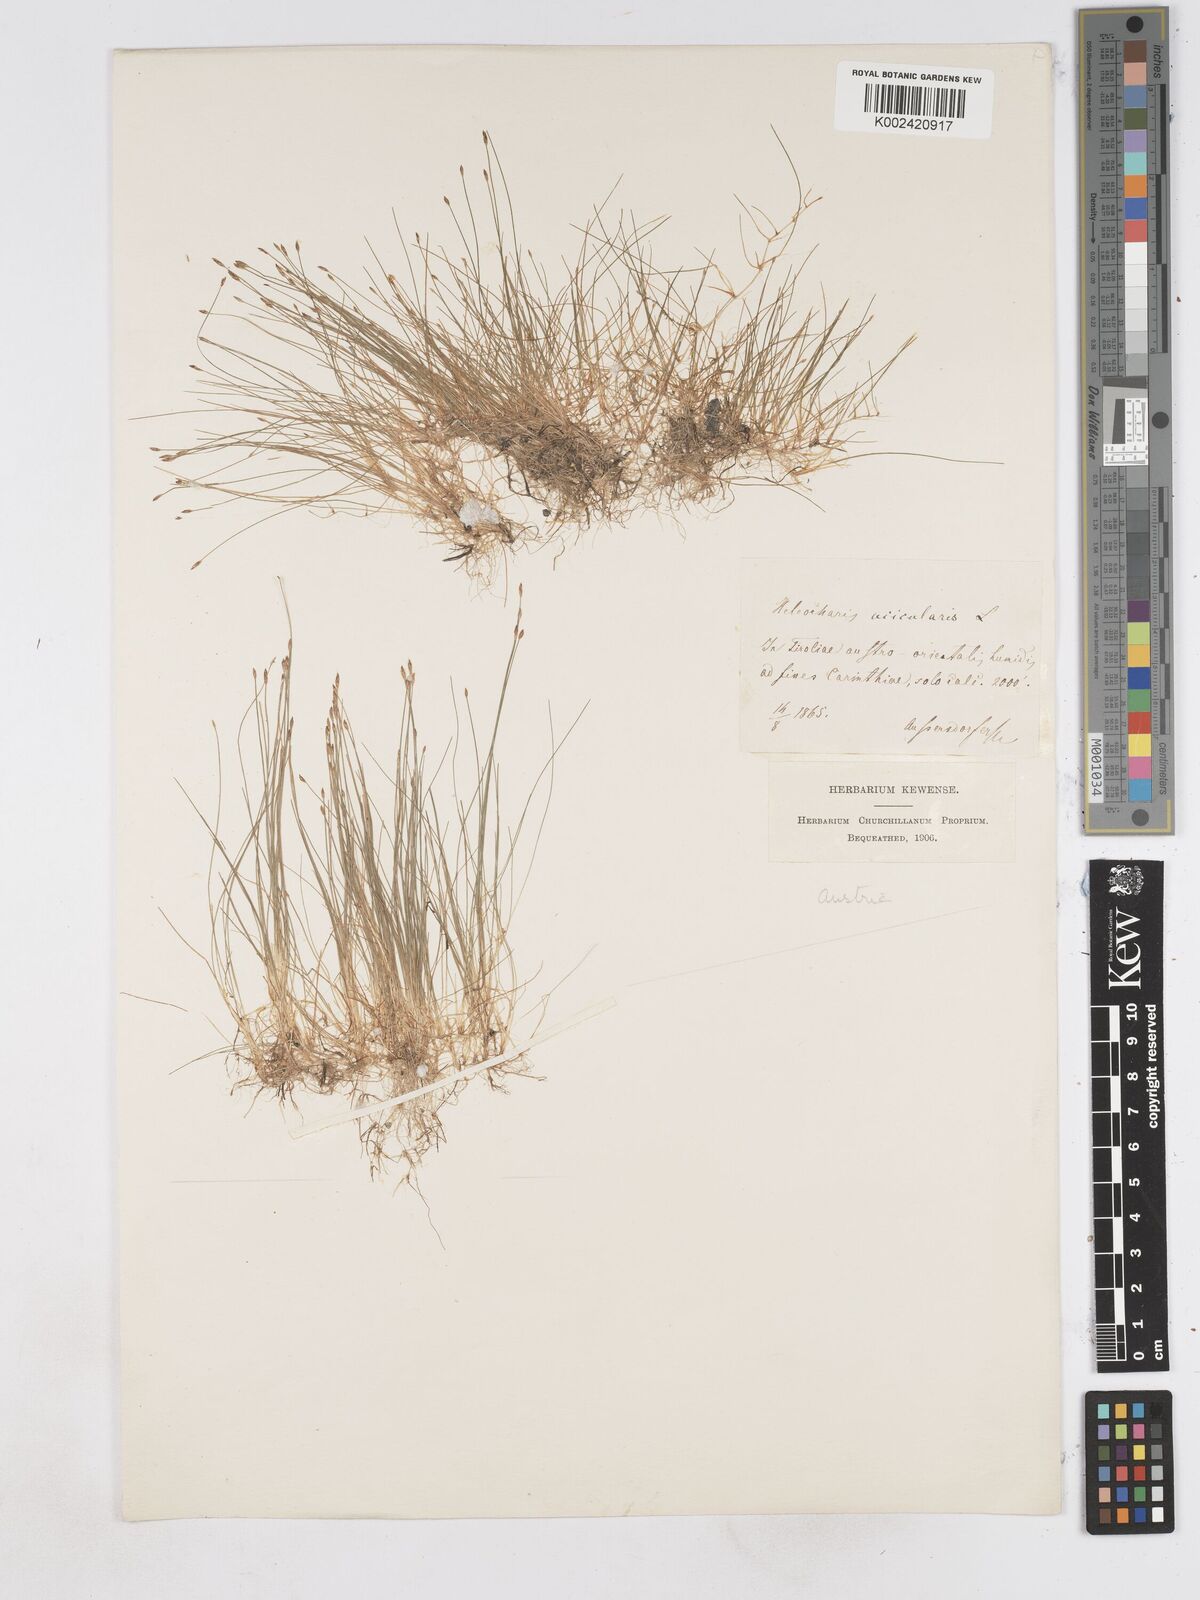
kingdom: Plantae
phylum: Tracheophyta
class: Liliopsida
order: Poales
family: Cyperaceae
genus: Eleocharis
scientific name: Eleocharis acicularis
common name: Needle spike-rush
